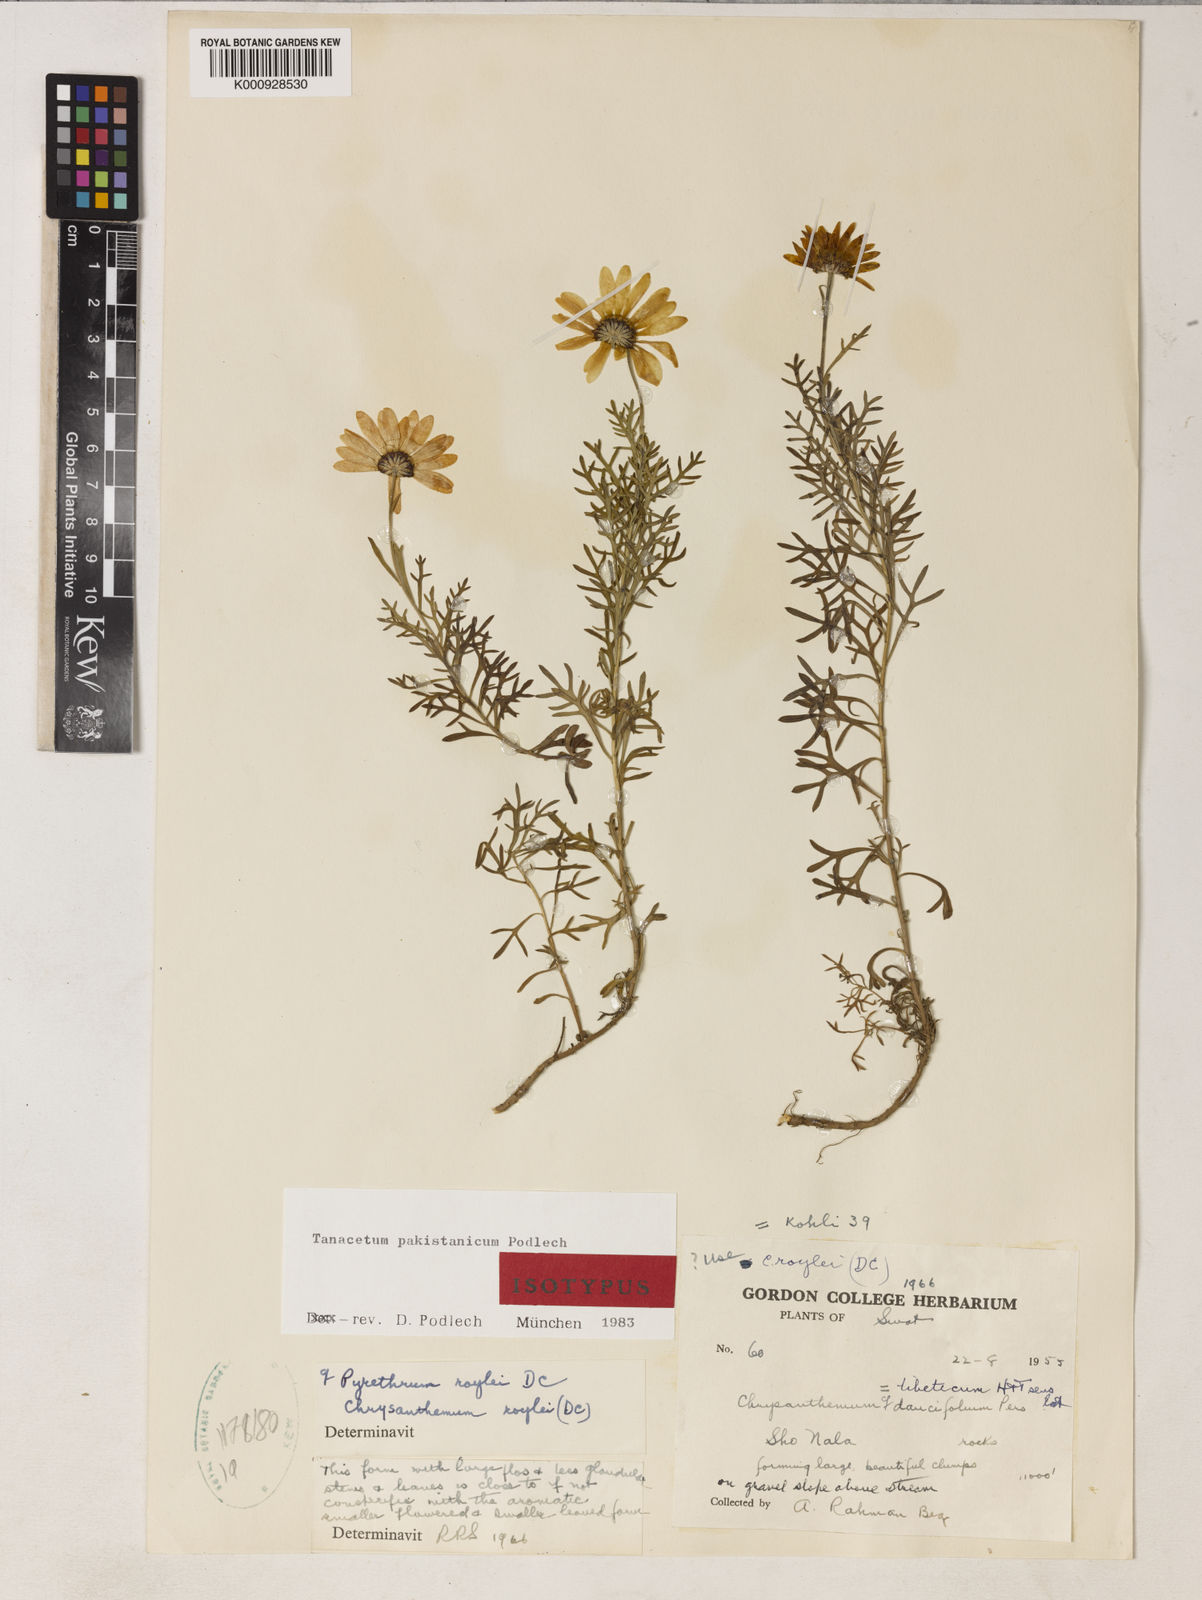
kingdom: Plantae
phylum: Tracheophyta
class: Magnoliopsida
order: Asterales
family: Asteraceae
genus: Tanacetum
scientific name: Tanacetum pakistanicum
